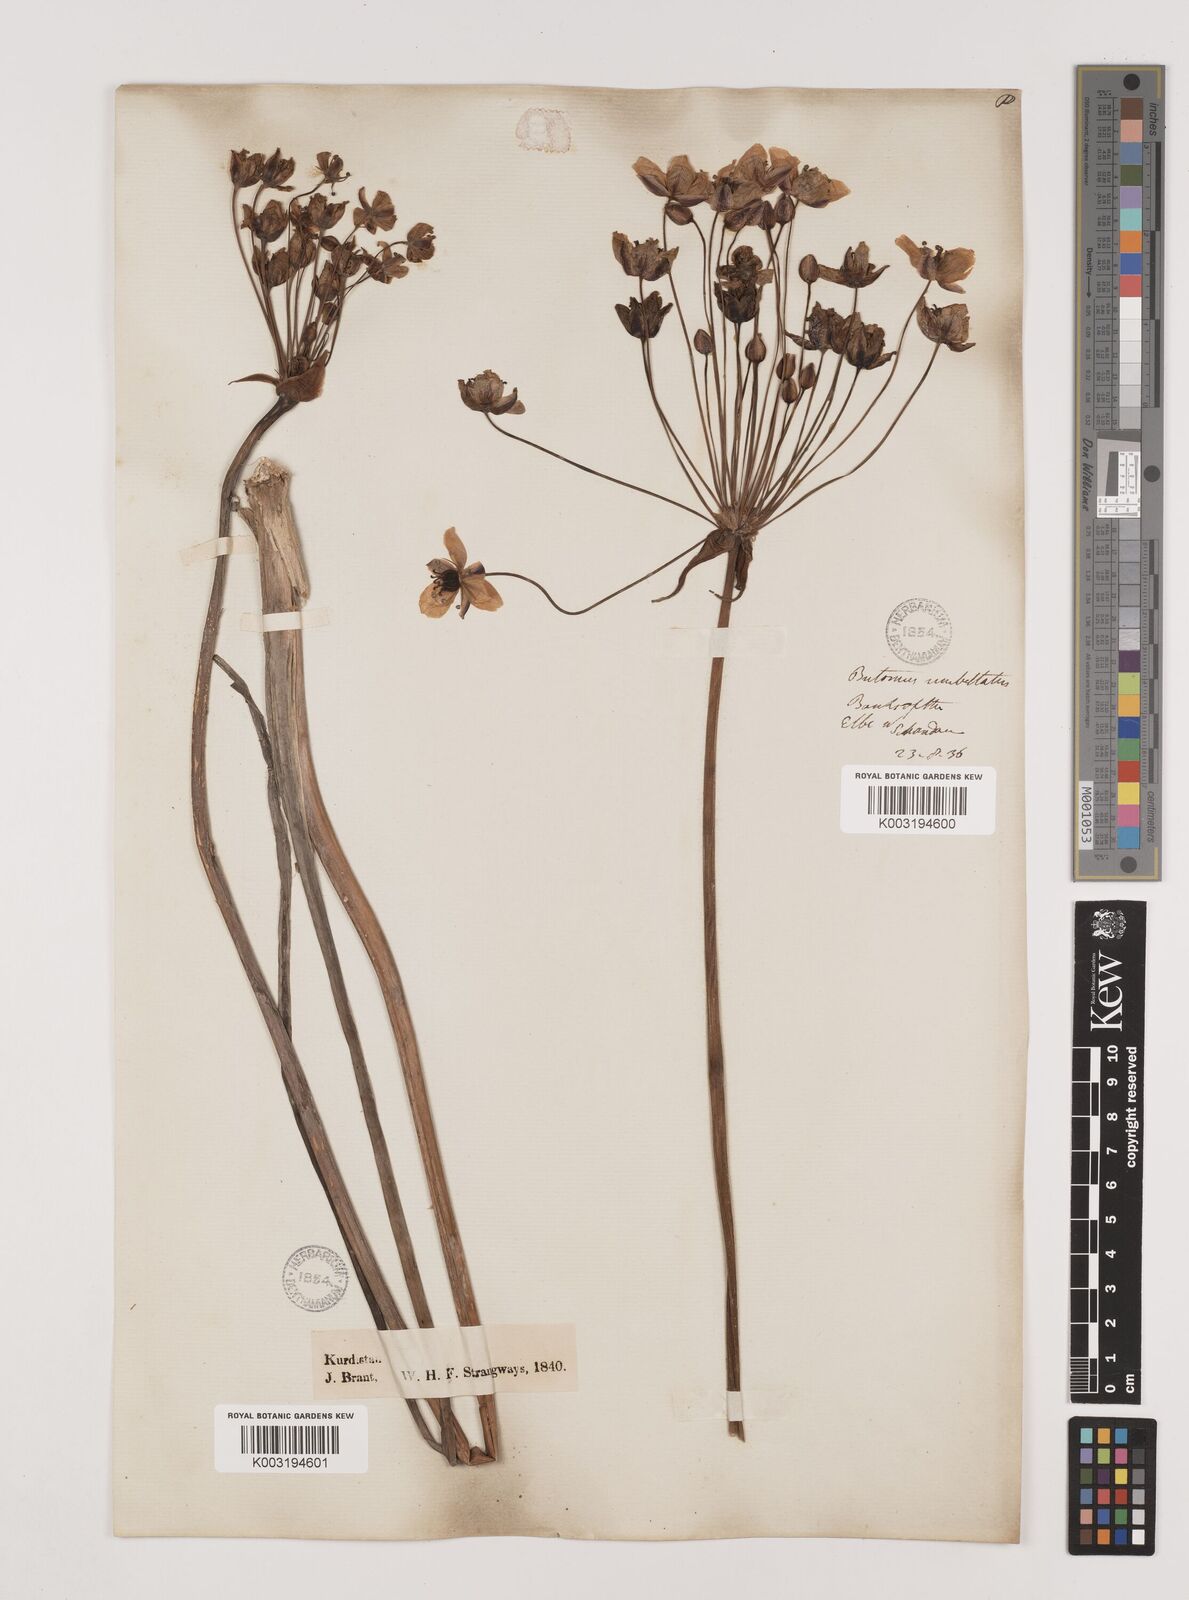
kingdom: Plantae
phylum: Tracheophyta
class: Liliopsida
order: Alismatales
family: Butomaceae
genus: Butomus
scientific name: Butomus umbellatus
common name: Flowering-rush
